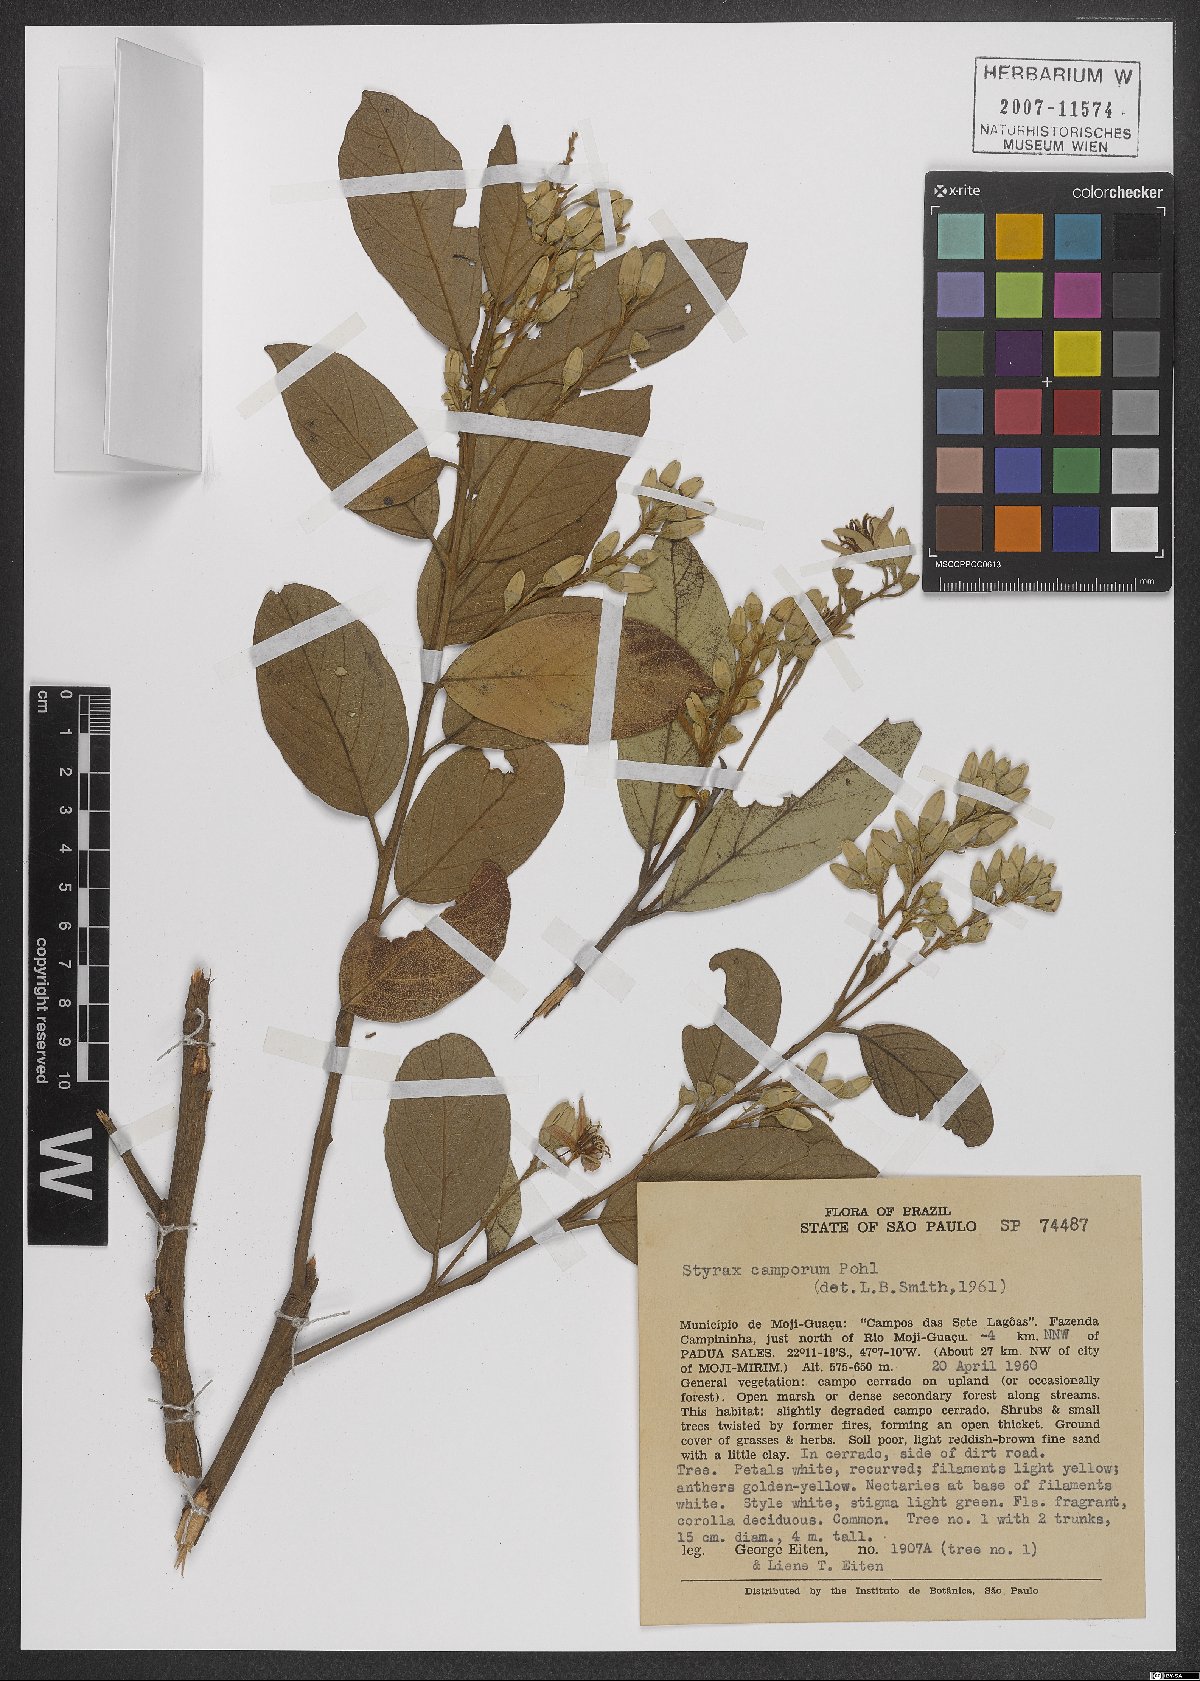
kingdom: Plantae
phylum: Tracheophyta
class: Magnoliopsida
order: Ericales
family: Styracaceae
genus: Styrax
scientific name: Styrax camporum
